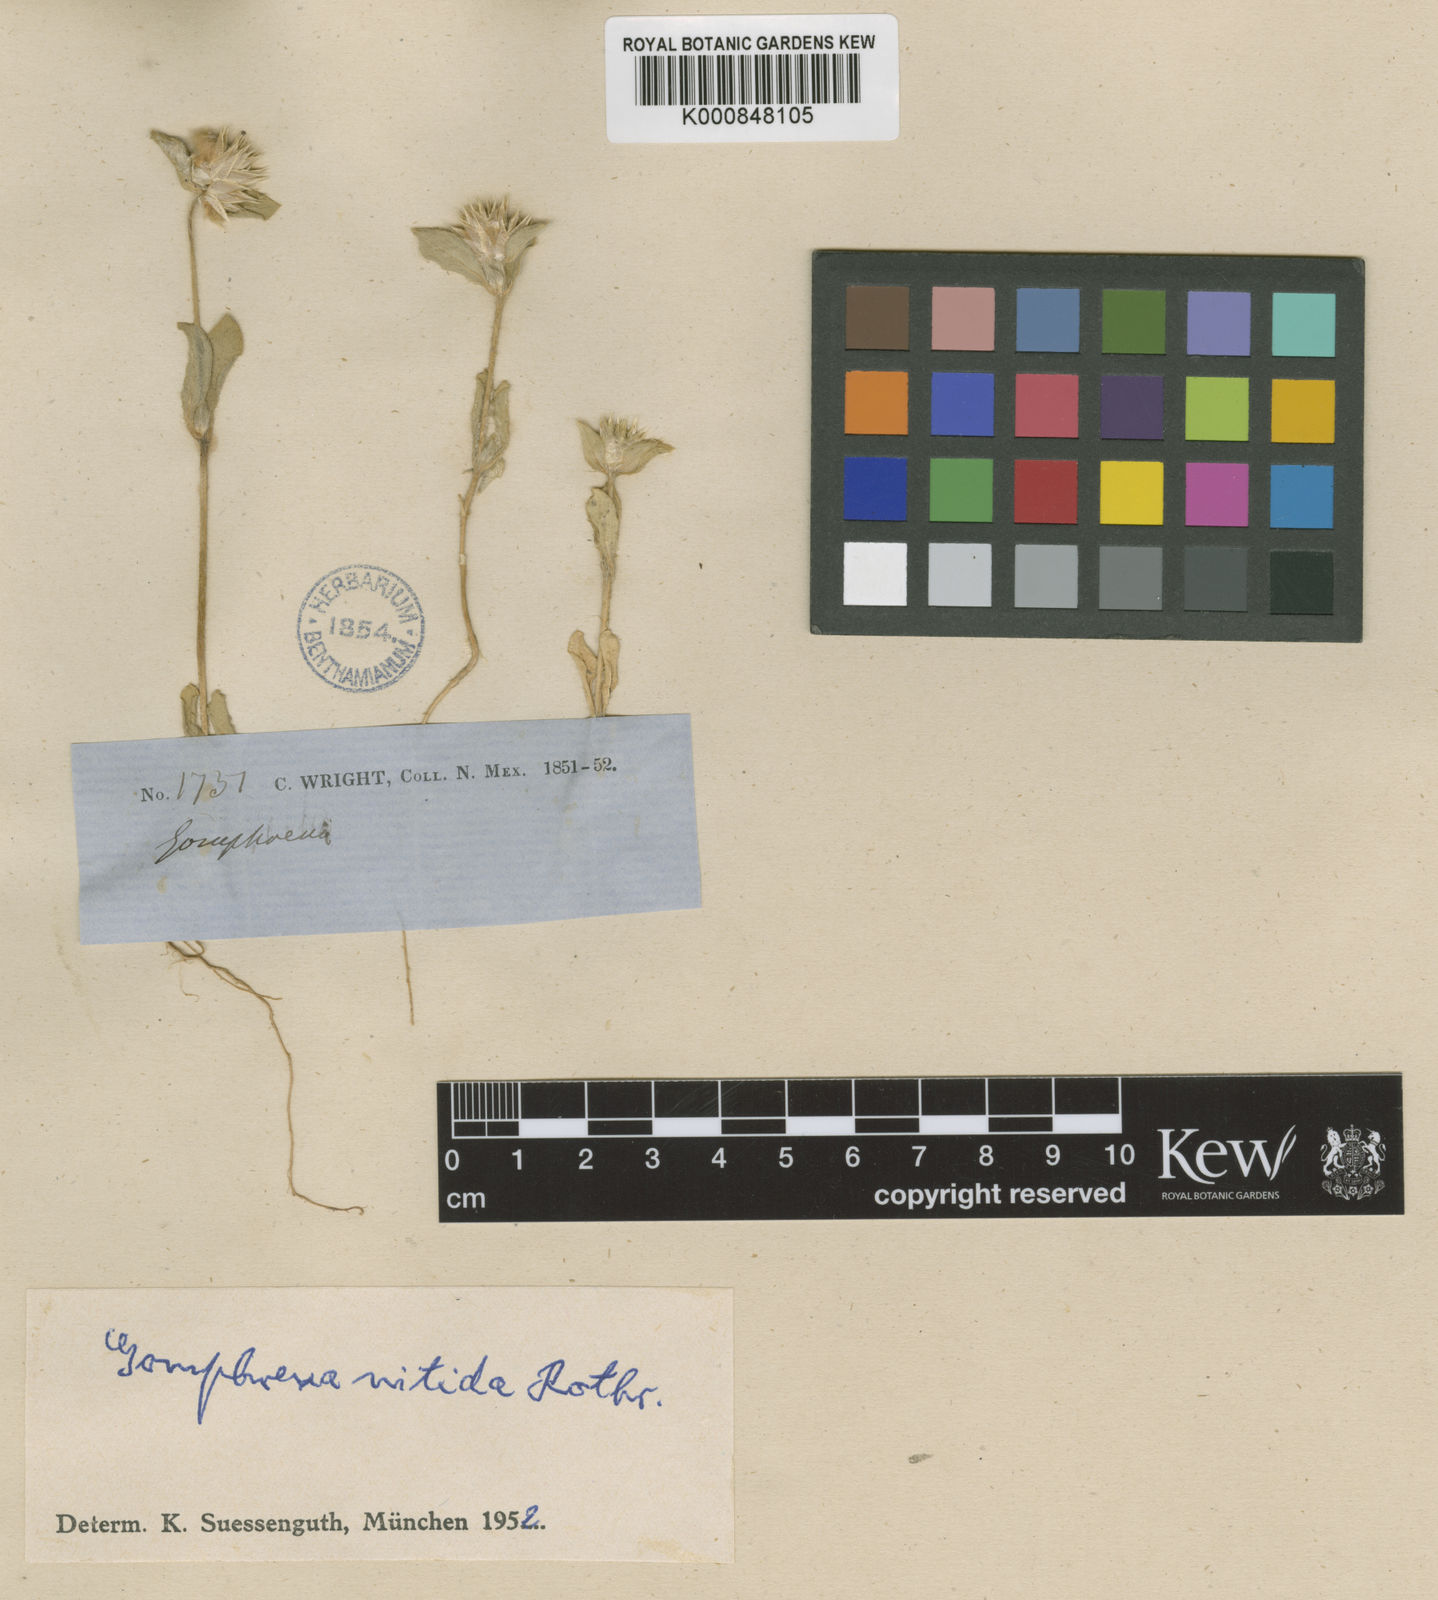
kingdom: Plantae
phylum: Tracheophyta
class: Magnoliopsida
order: Caryophyllales
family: Amaranthaceae
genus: Gomphrena
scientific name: Gomphrena nitida
